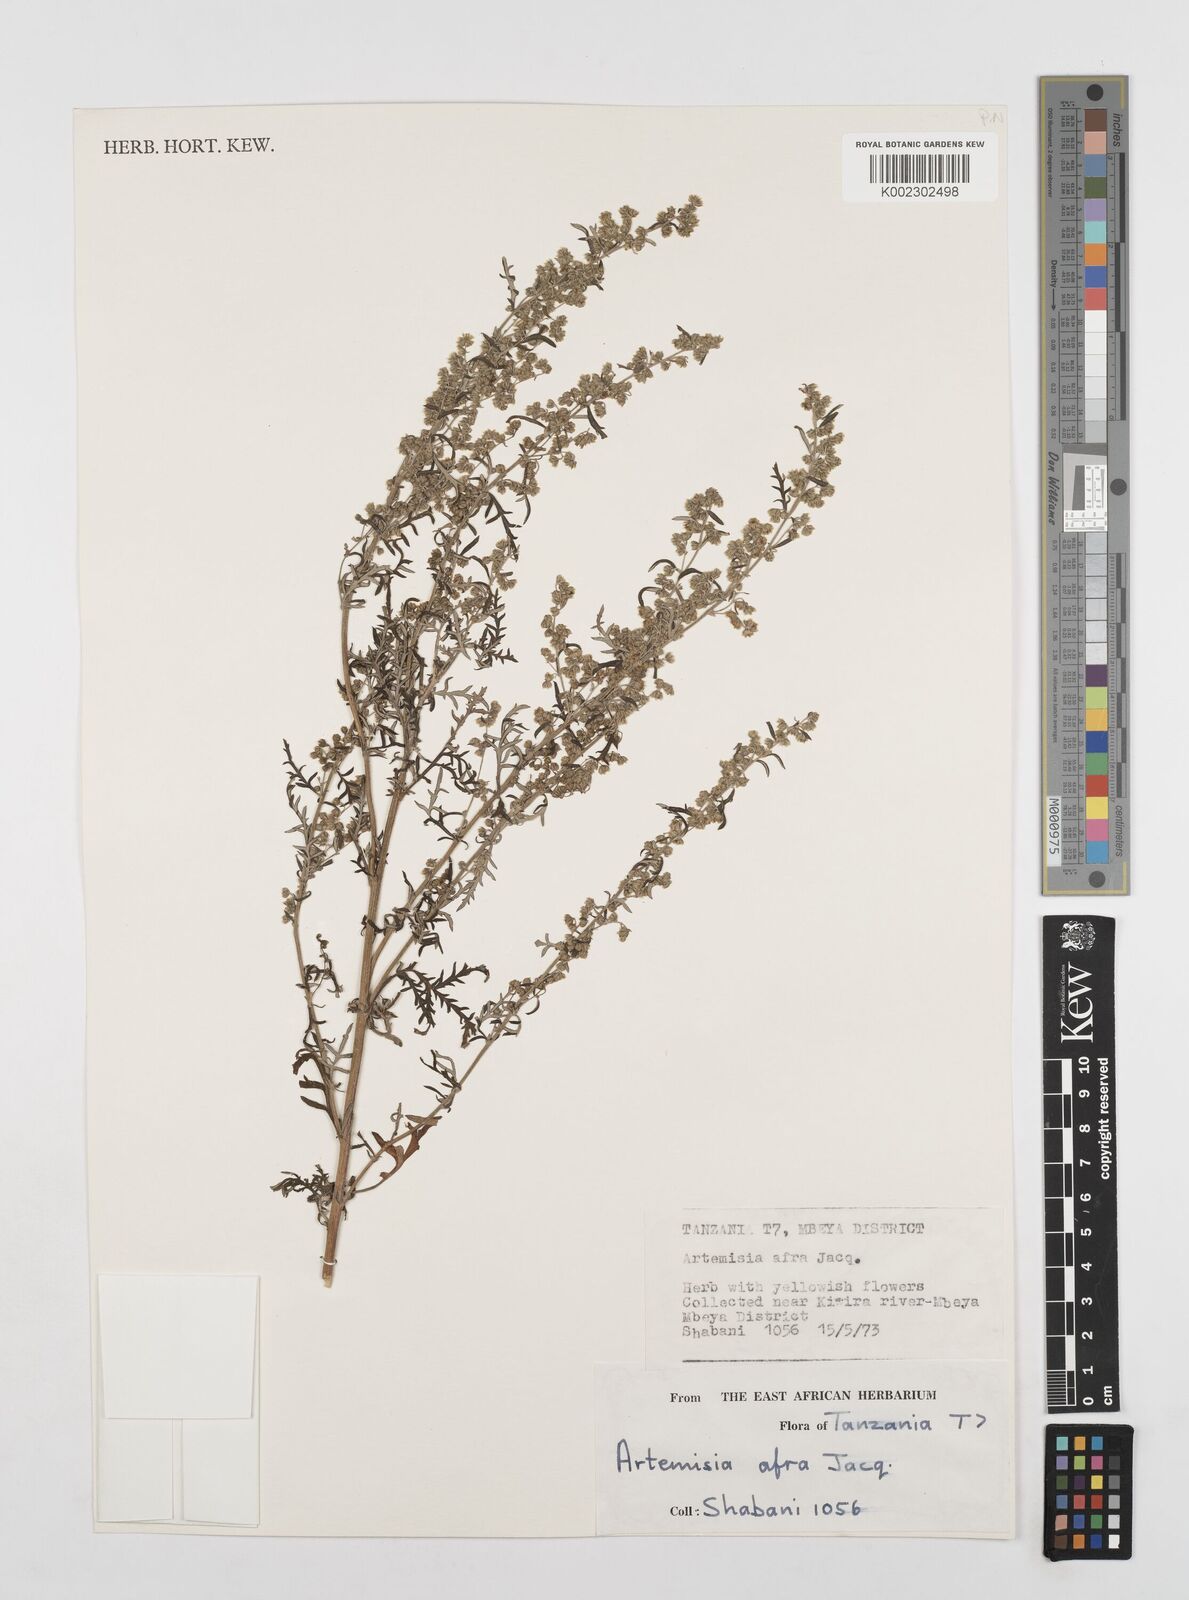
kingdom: Plantae
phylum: Tracheophyta
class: Magnoliopsida
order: Asterales
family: Asteraceae
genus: Artemisia
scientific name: Artemisia afra
